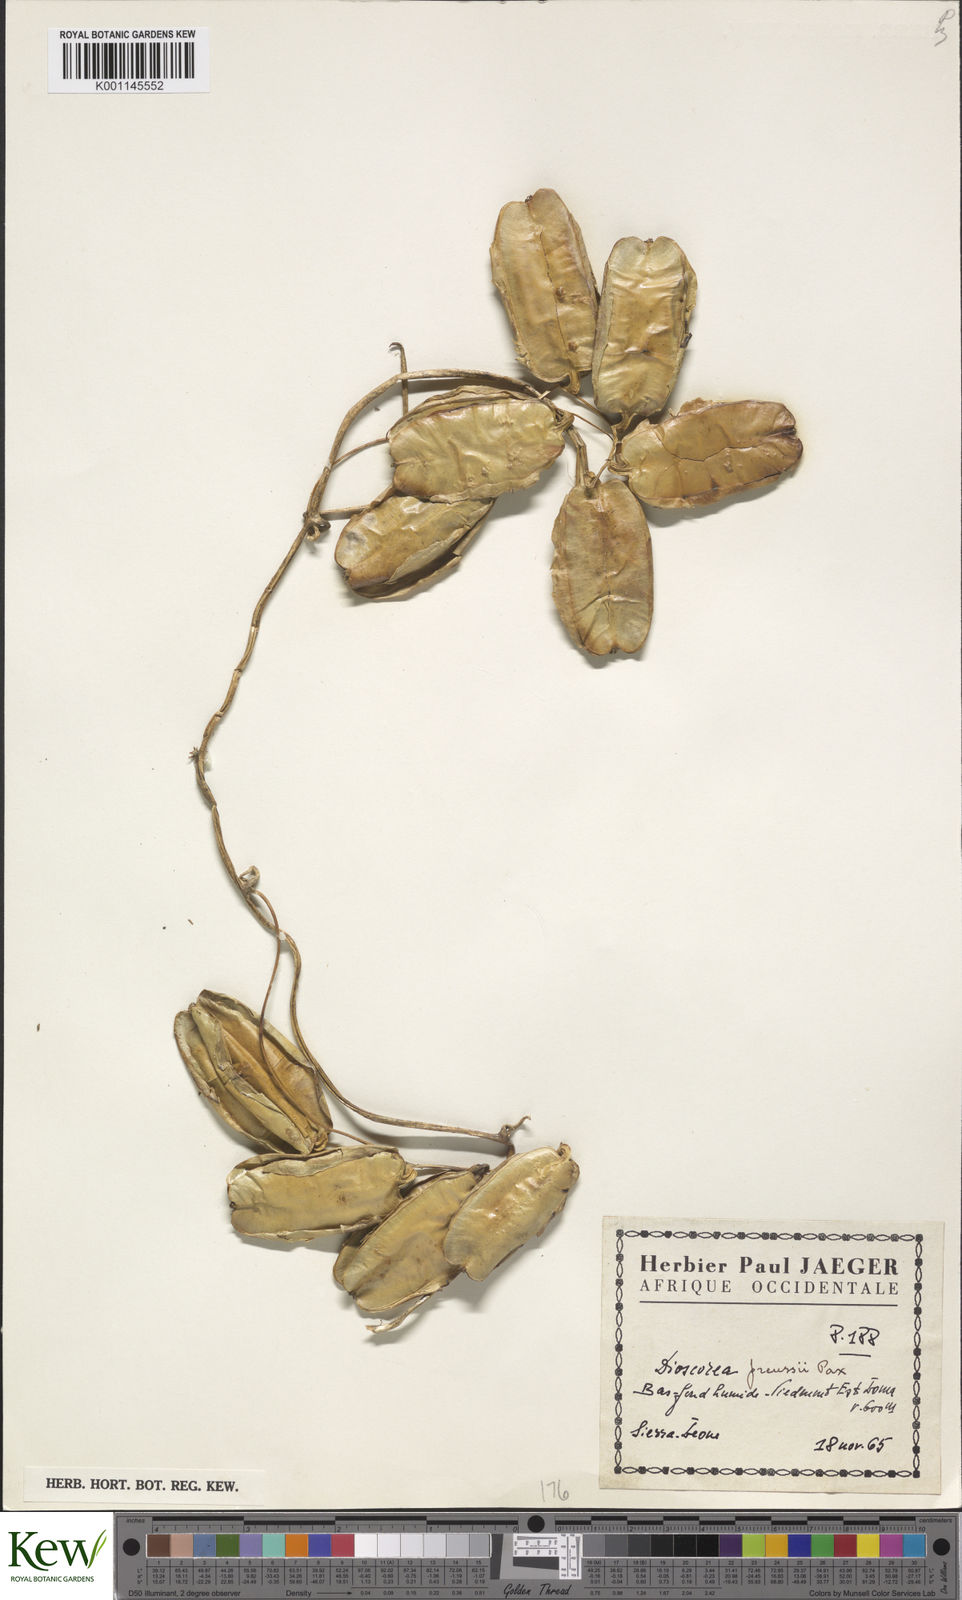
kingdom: Plantae
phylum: Tracheophyta
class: Liliopsida
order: Dioscoreales
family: Dioscoreaceae
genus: Dioscorea
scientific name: Dioscorea preussii
